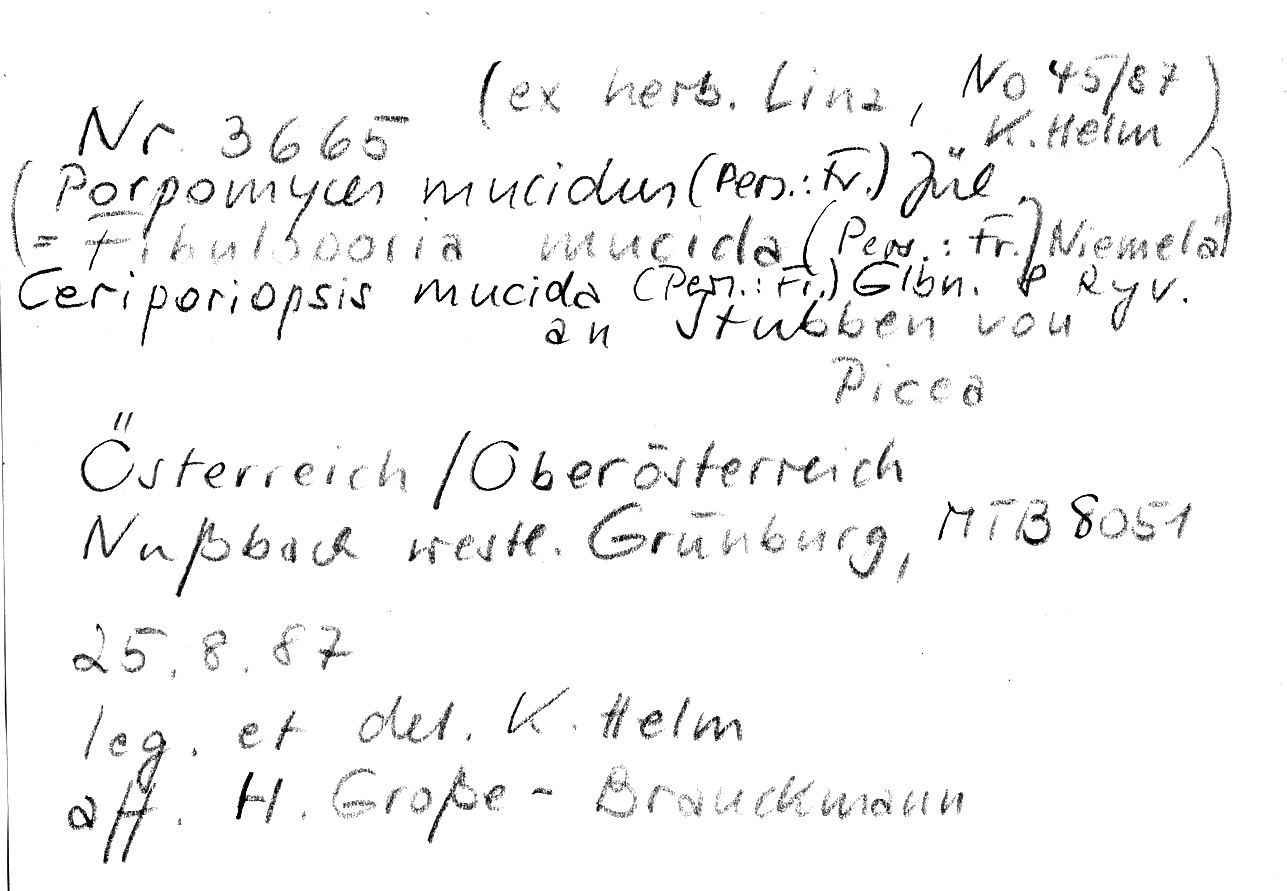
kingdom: Plantae
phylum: Tracheophyta
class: Pinopsida
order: Pinales
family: Pinaceae
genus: Picea
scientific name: Picea
